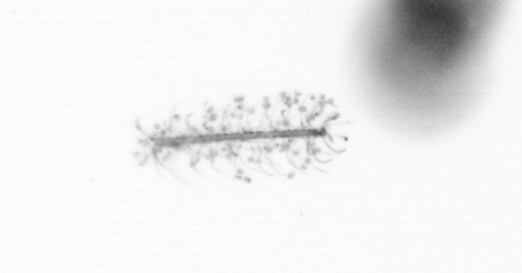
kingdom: Chromista
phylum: Ochrophyta
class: Bacillariophyceae
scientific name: Bacillariophyceae
